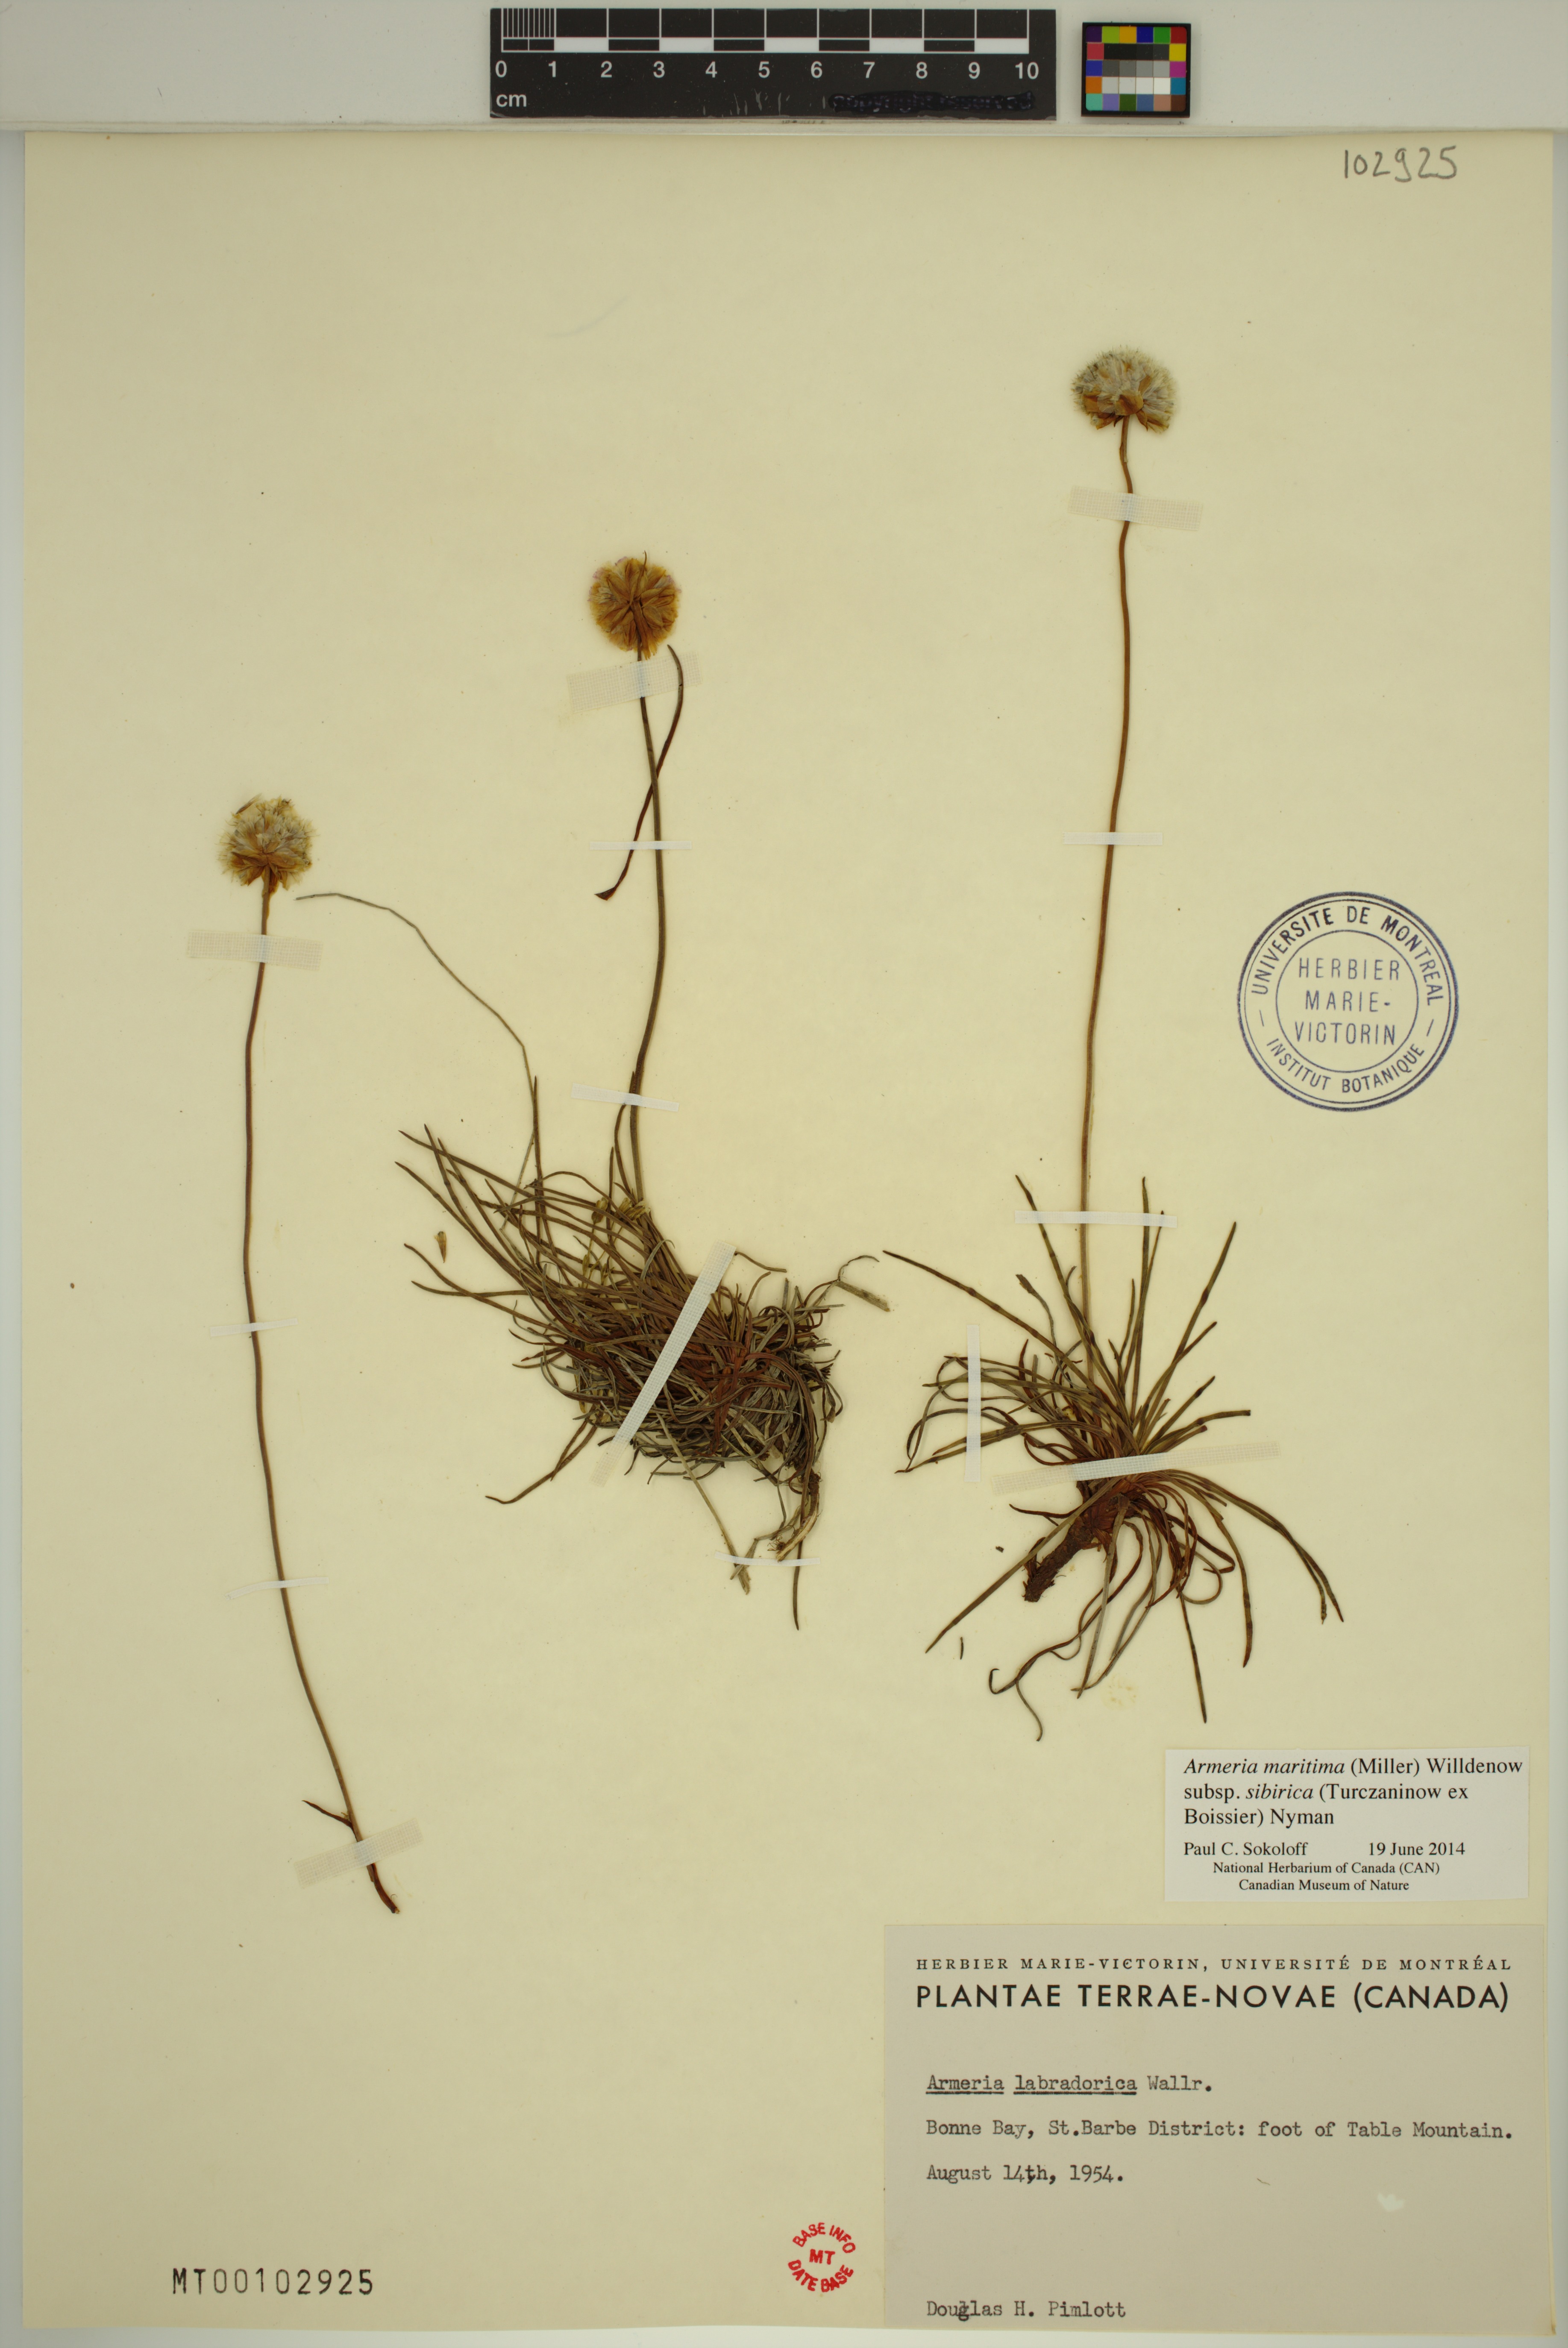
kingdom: Plantae
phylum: Tracheophyta
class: Magnoliopsida
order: Caryophyllales
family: Plumbaginaceae
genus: Armeria
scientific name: Armeria maritima
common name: Thrift
